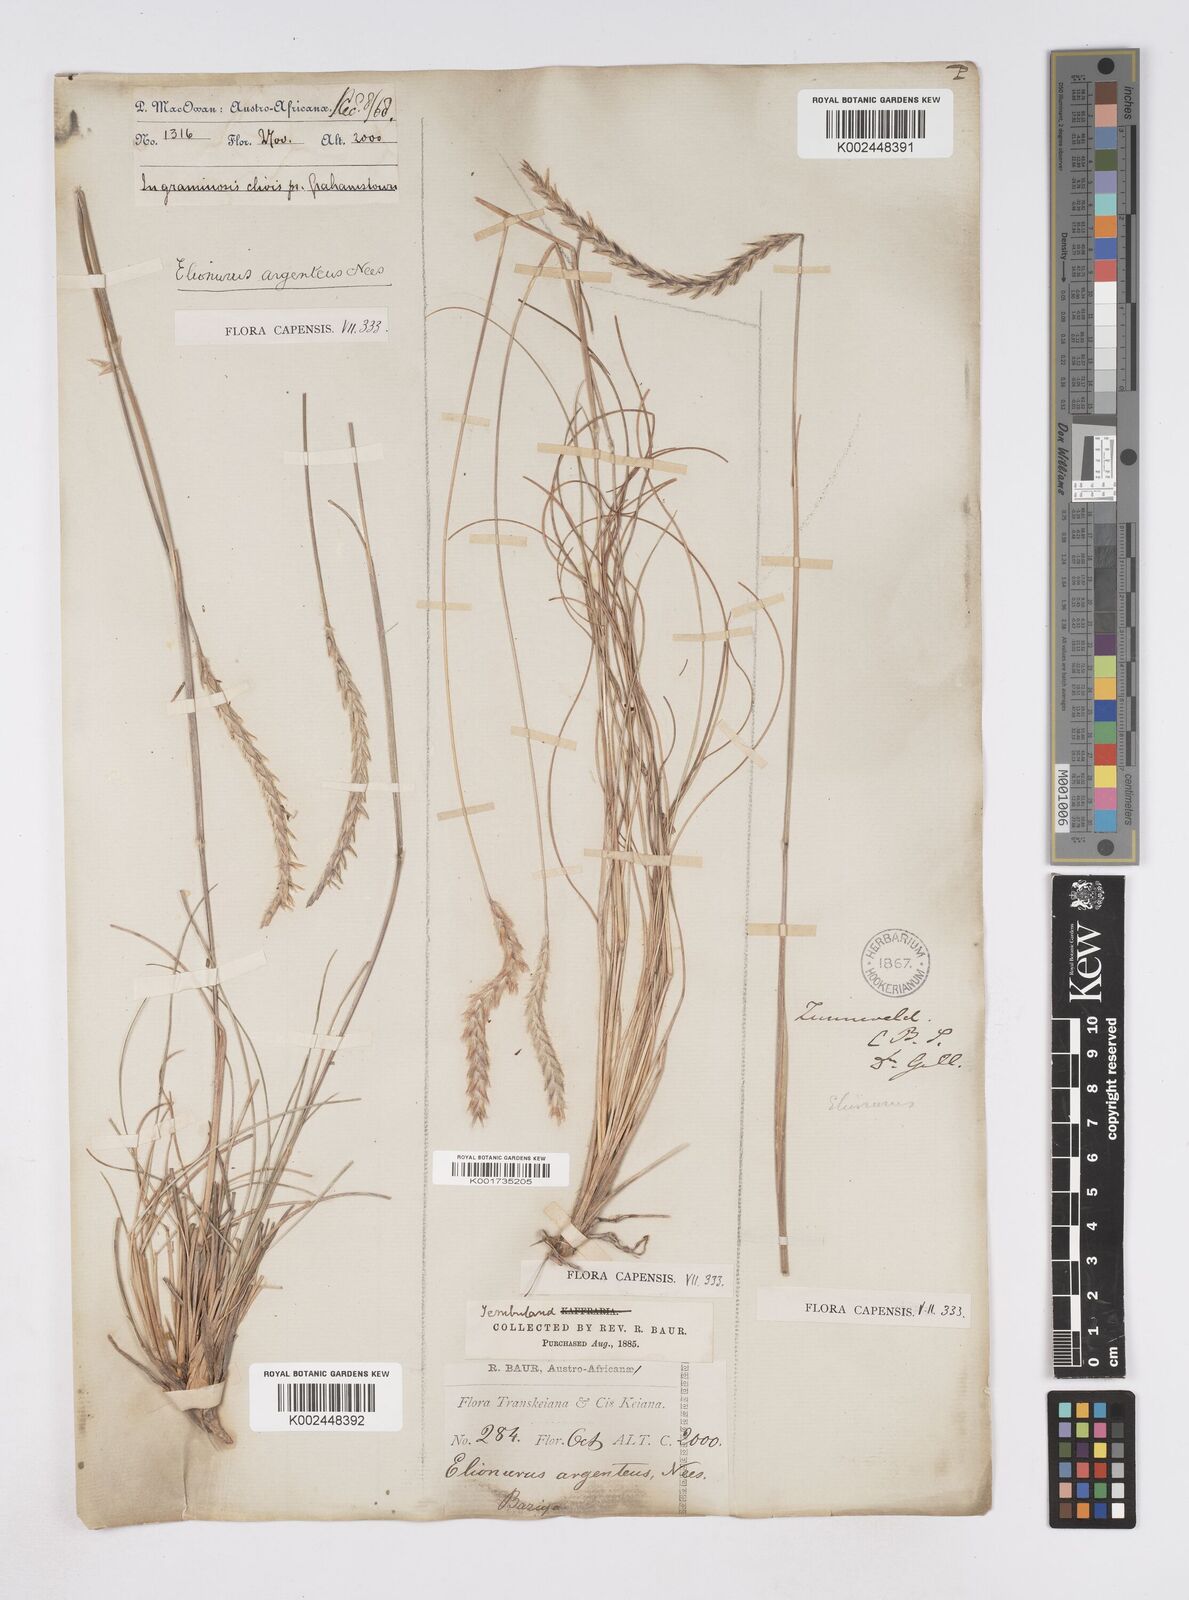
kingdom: Plantae
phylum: Tracheophyta
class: Liliopsida
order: Poales
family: Poaceae
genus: Elionurus
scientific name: Elionurus muticus
